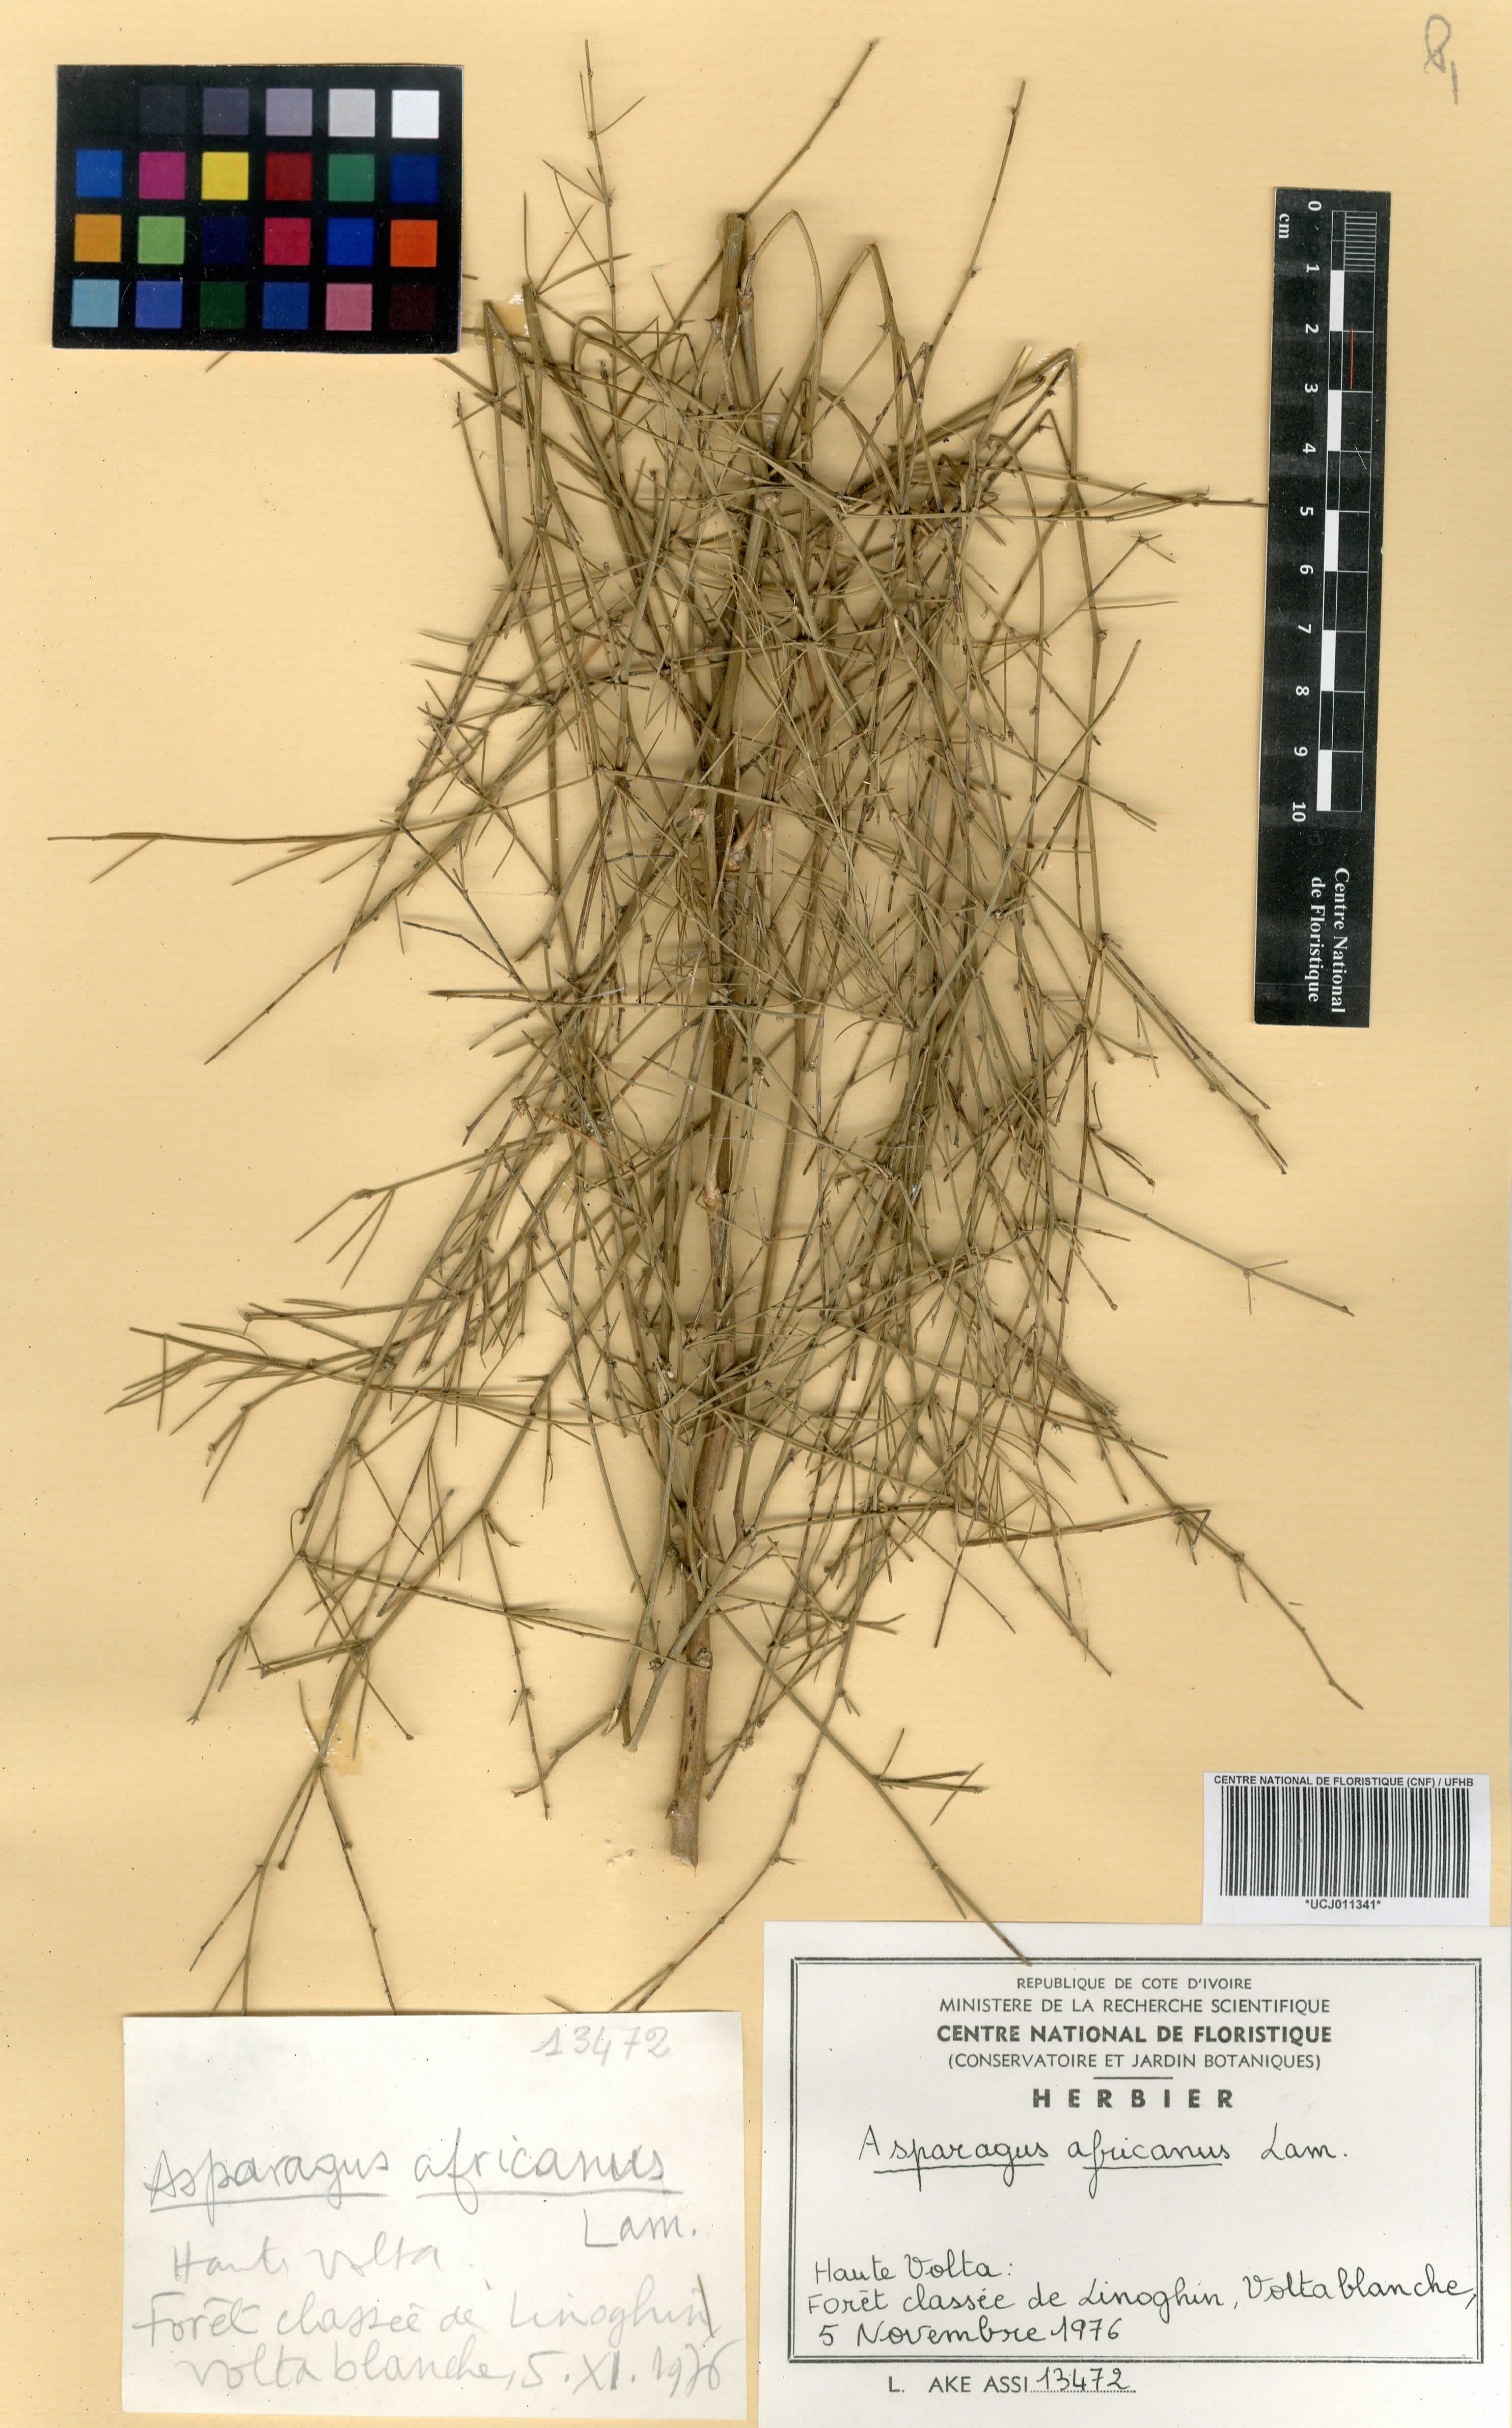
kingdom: Plantae
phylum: Tracheophyta
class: Liliopsida
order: Asparagales
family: Asparagaceae
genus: Asparagus
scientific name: Asparagus africanus
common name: Asparagus-fern
